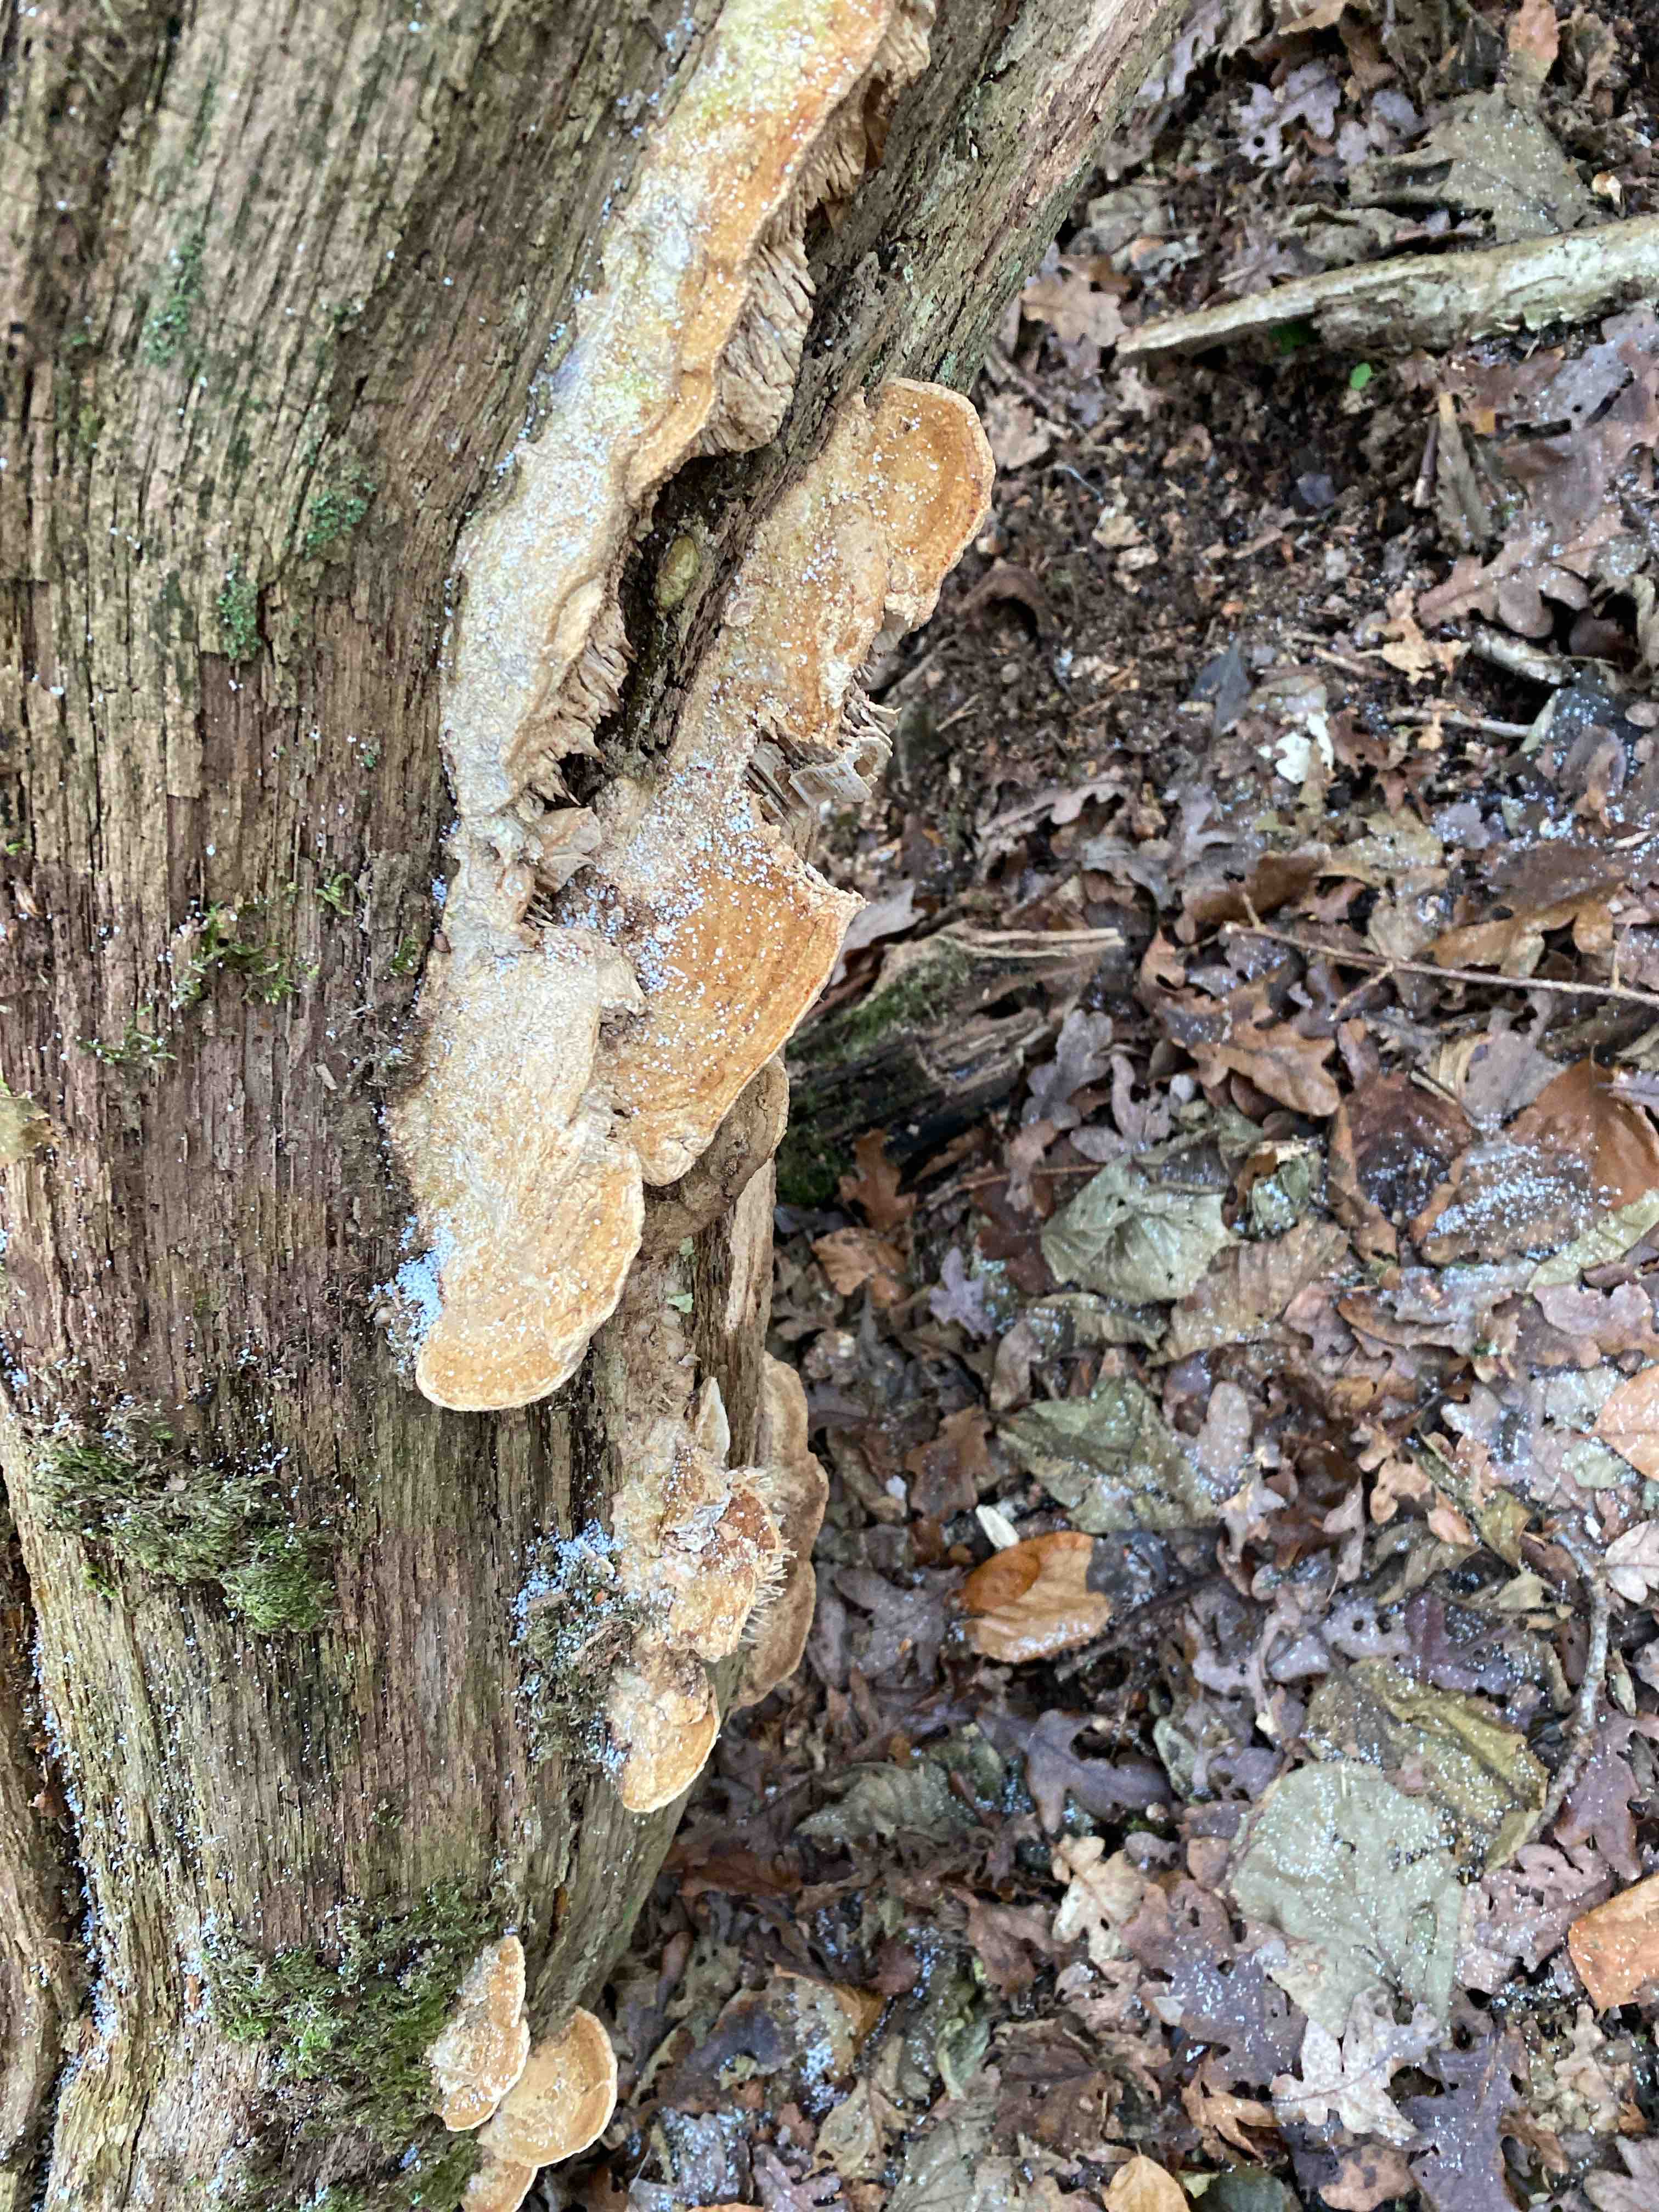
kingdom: Fungi
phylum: Basidiomycota
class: Agaricomycetes
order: Polyporales
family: Fomitopsidaceae
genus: Daedalea
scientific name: Daedalea quercina
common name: ege-labyrintsvamp
